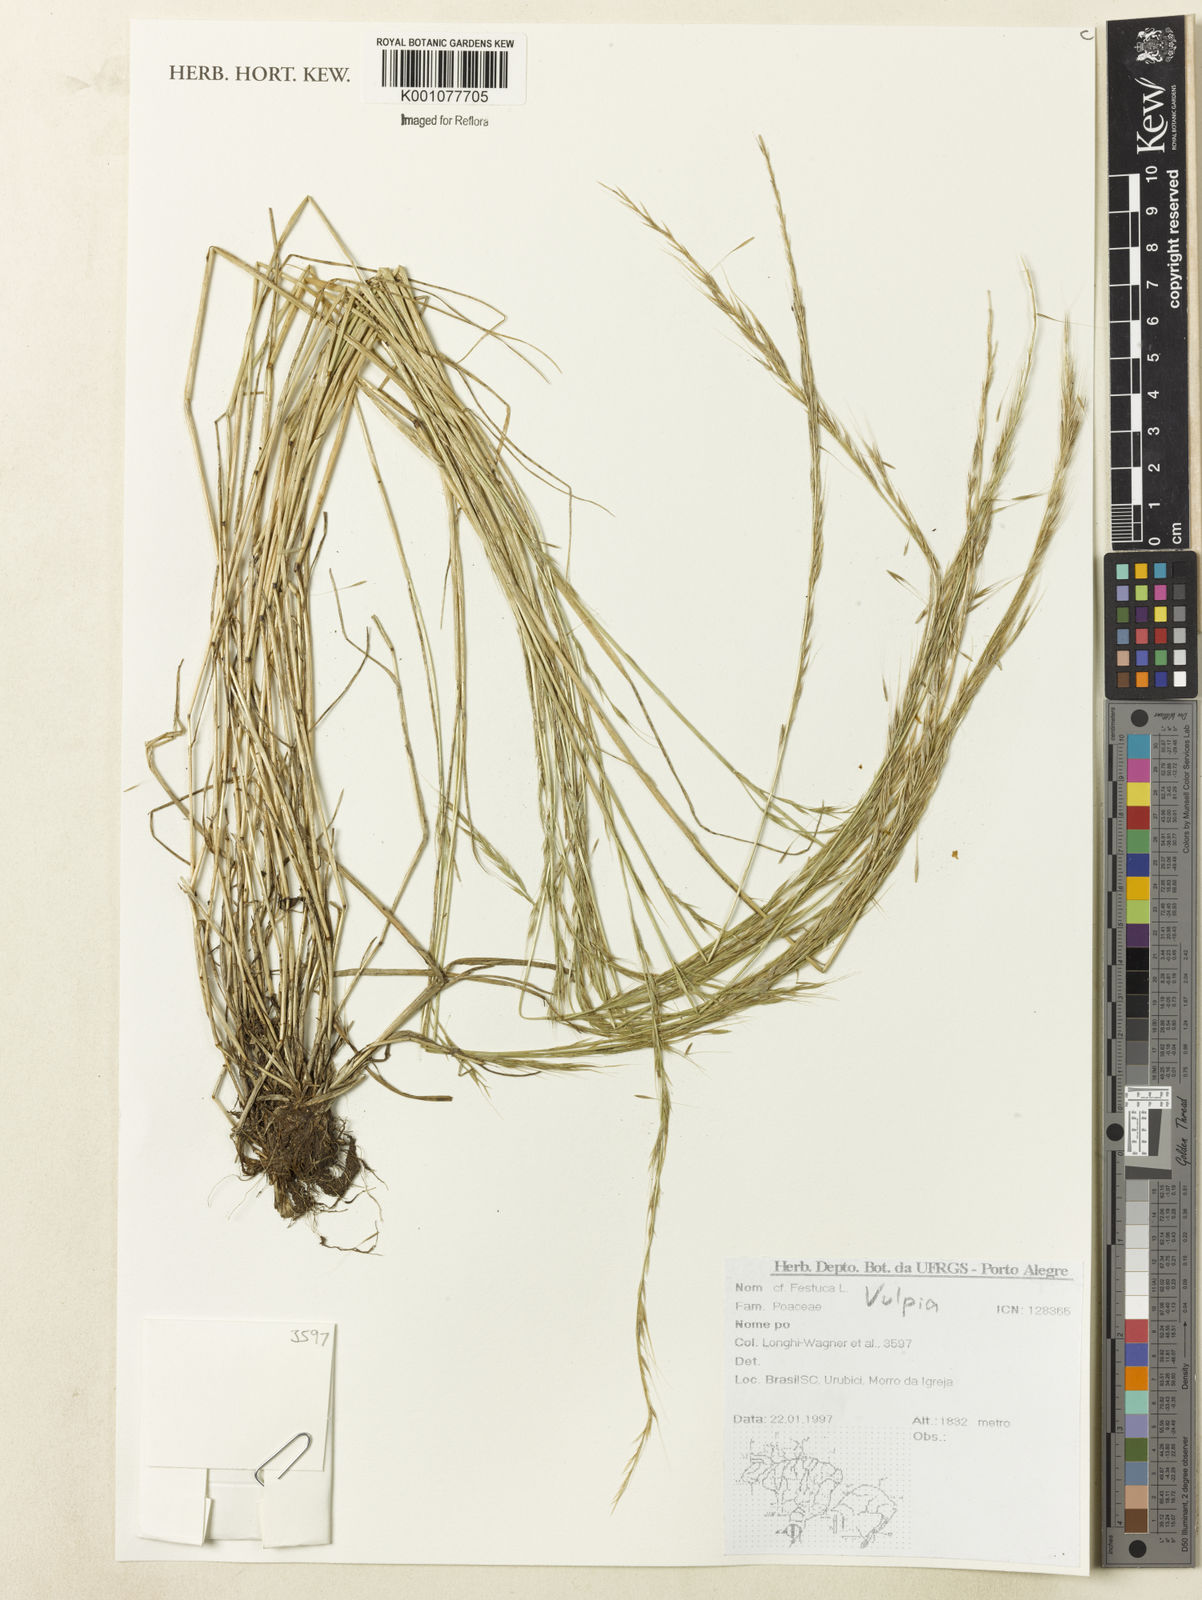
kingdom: Plantae
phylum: Tracheophyta
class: Liliopsida
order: Poales
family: Poaceae
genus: Festuca
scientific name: Festuca
